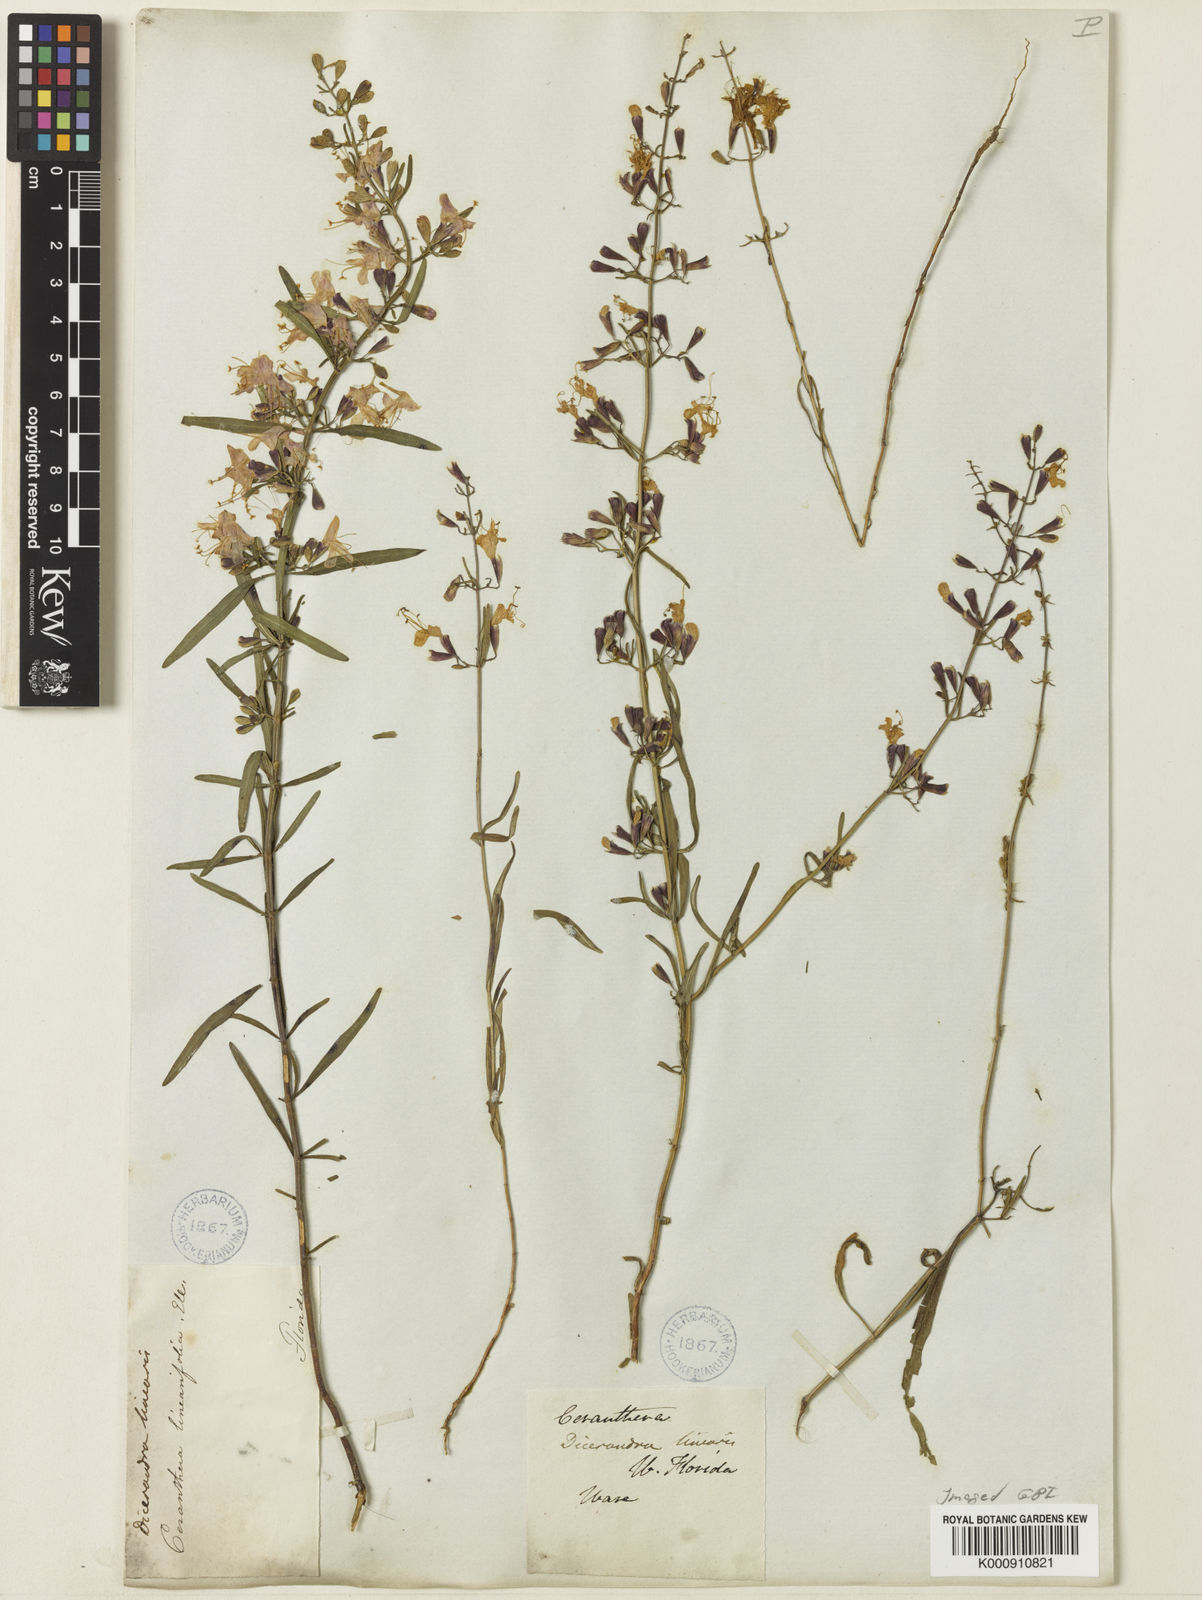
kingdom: Plantae
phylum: Tracheophyta
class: Magnoliopsida
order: Lamiales
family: Lamiaceae
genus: Dicerandra
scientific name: Dicerandra linearifolia
